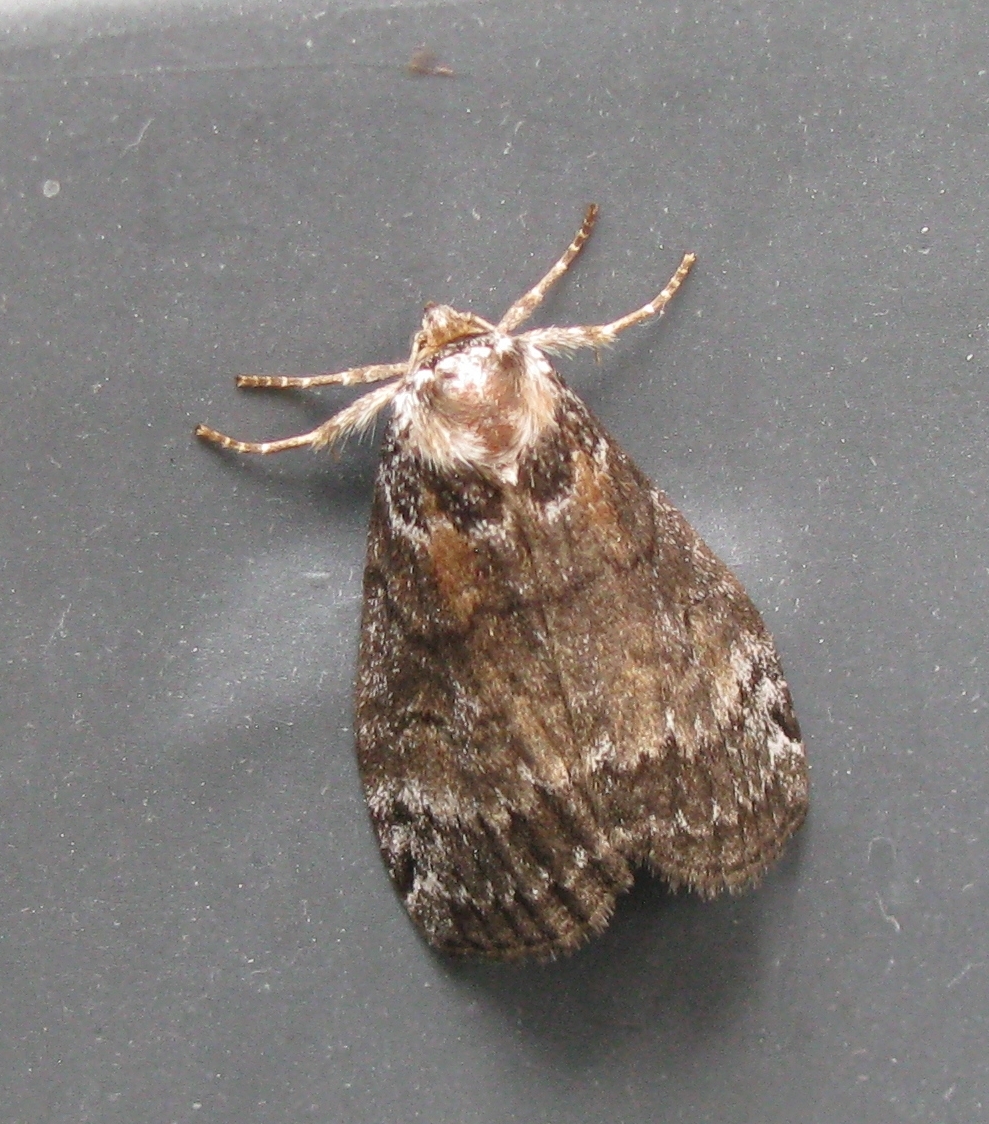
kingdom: Animalia
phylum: Arthropoda
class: Insecta
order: Lepidoptera
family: Drepanidae
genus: Tetheella
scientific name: Tetheella fluctuosa
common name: Satin lutestring
